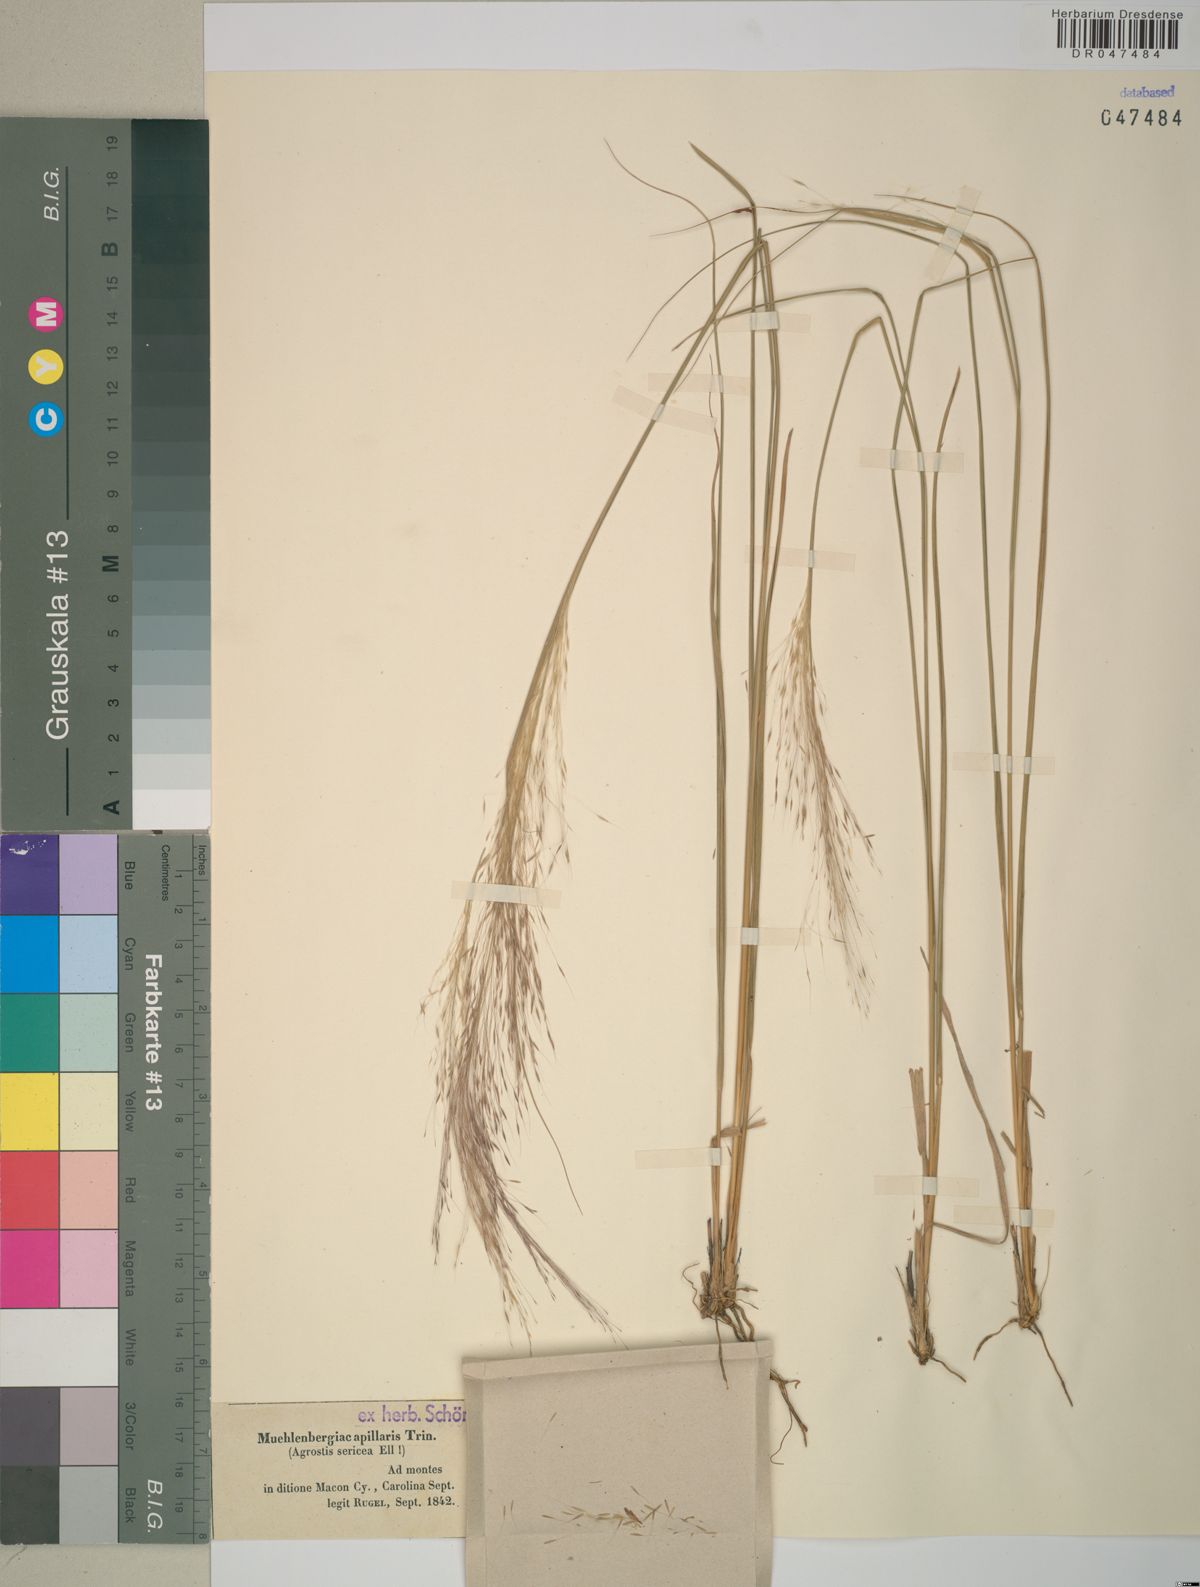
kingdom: Plantae
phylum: Tracheophyta
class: Liliopsida
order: Poales
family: Poaceae
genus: Muhlenbergia
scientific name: Muhlenbergia capillaris
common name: Purple grass
